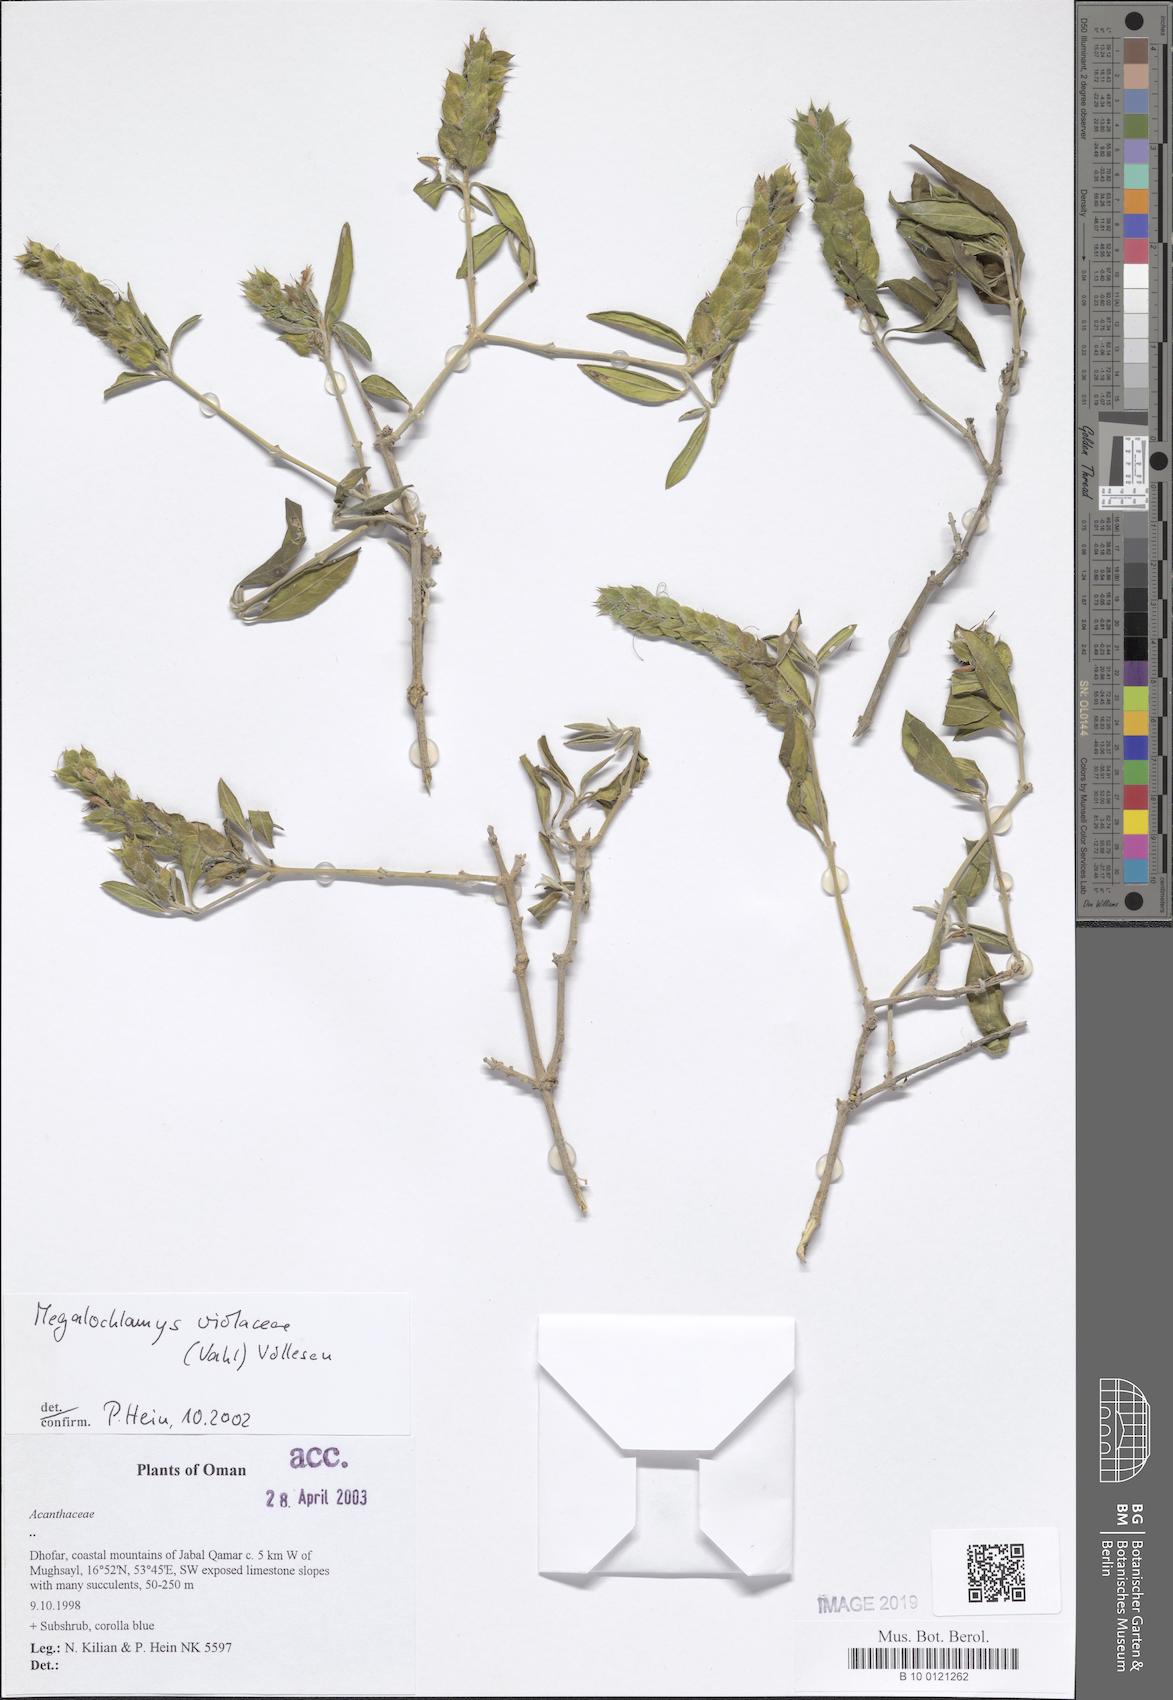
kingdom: Plantae
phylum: Tracheophyta
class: Magnoliopsida
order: Lamiales
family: Acanthaceae
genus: Megalochlamys
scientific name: Megalochlamys violacea
